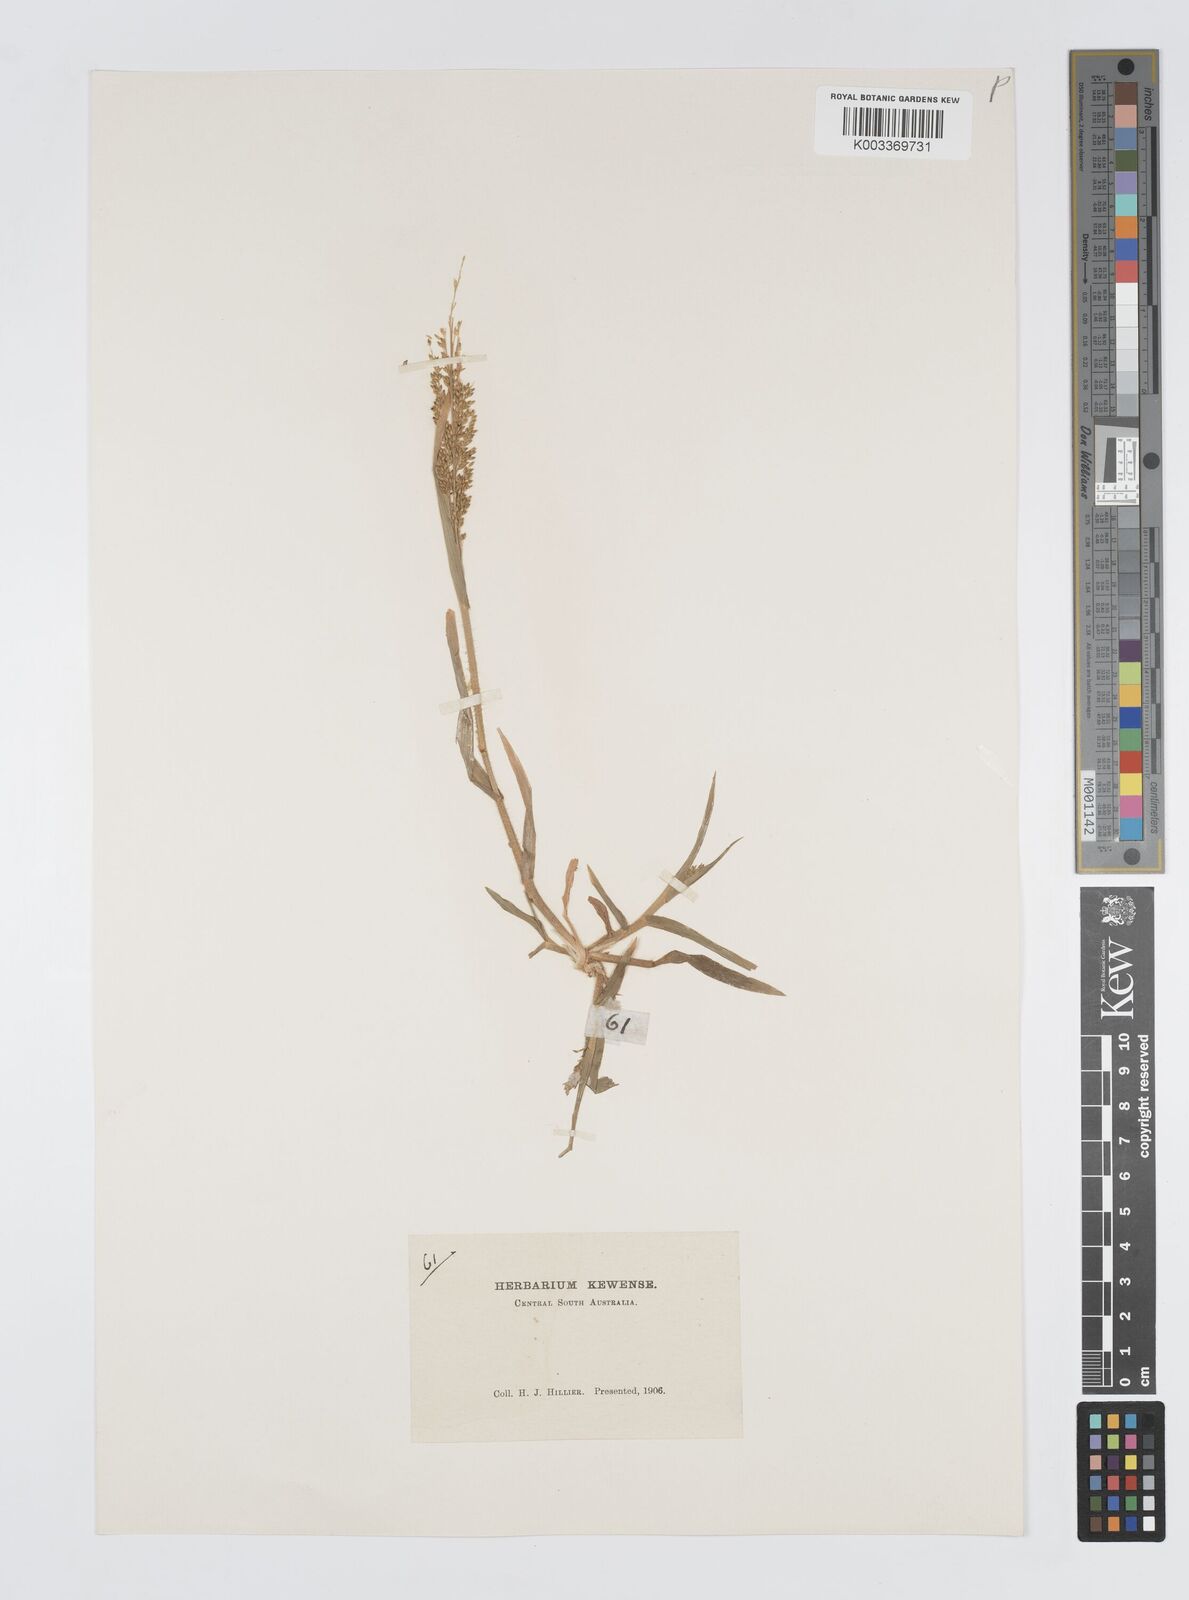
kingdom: Plantae
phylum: Tracheophyta
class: Liliopsida
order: Poales
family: Poaceae
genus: Panicum
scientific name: Panicum laevinode
